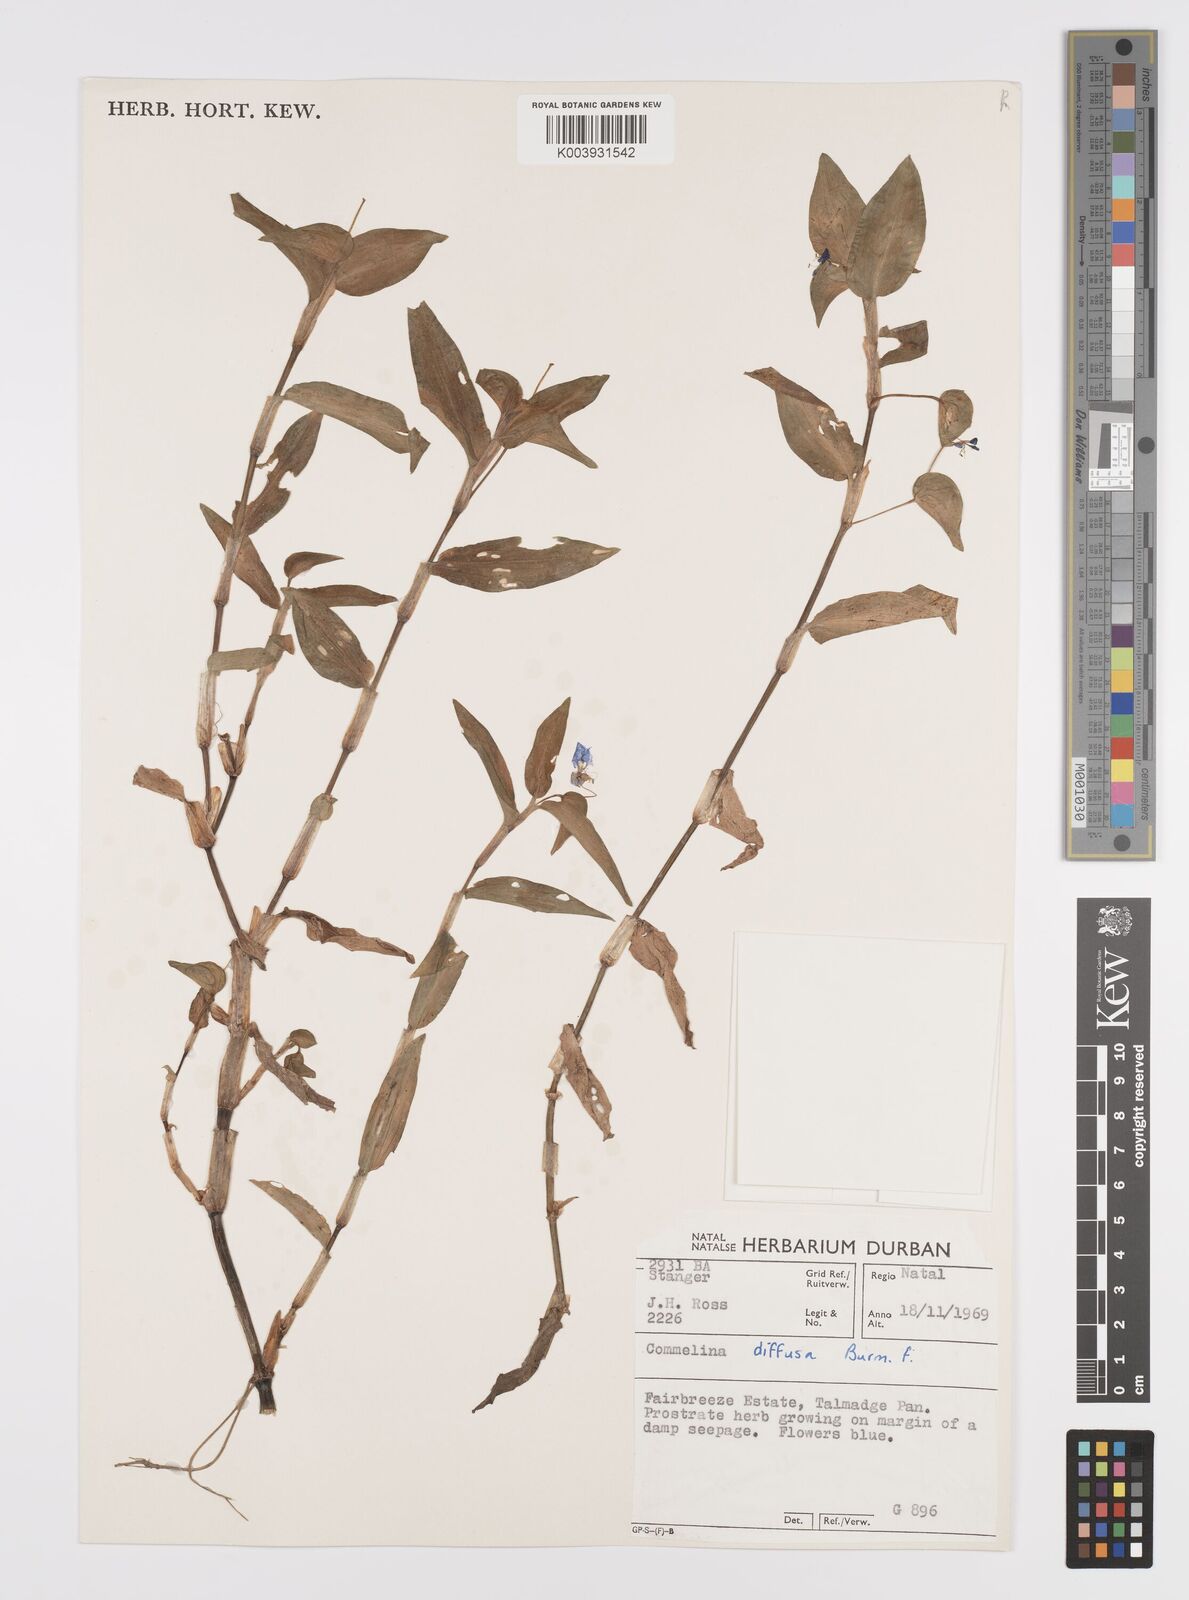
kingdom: Plantae
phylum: Tracheophyta
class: Liliopsida
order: Commelinales
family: Commelinaceae
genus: Commelina
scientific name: Commelina diffusa
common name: Climbing dayflower
